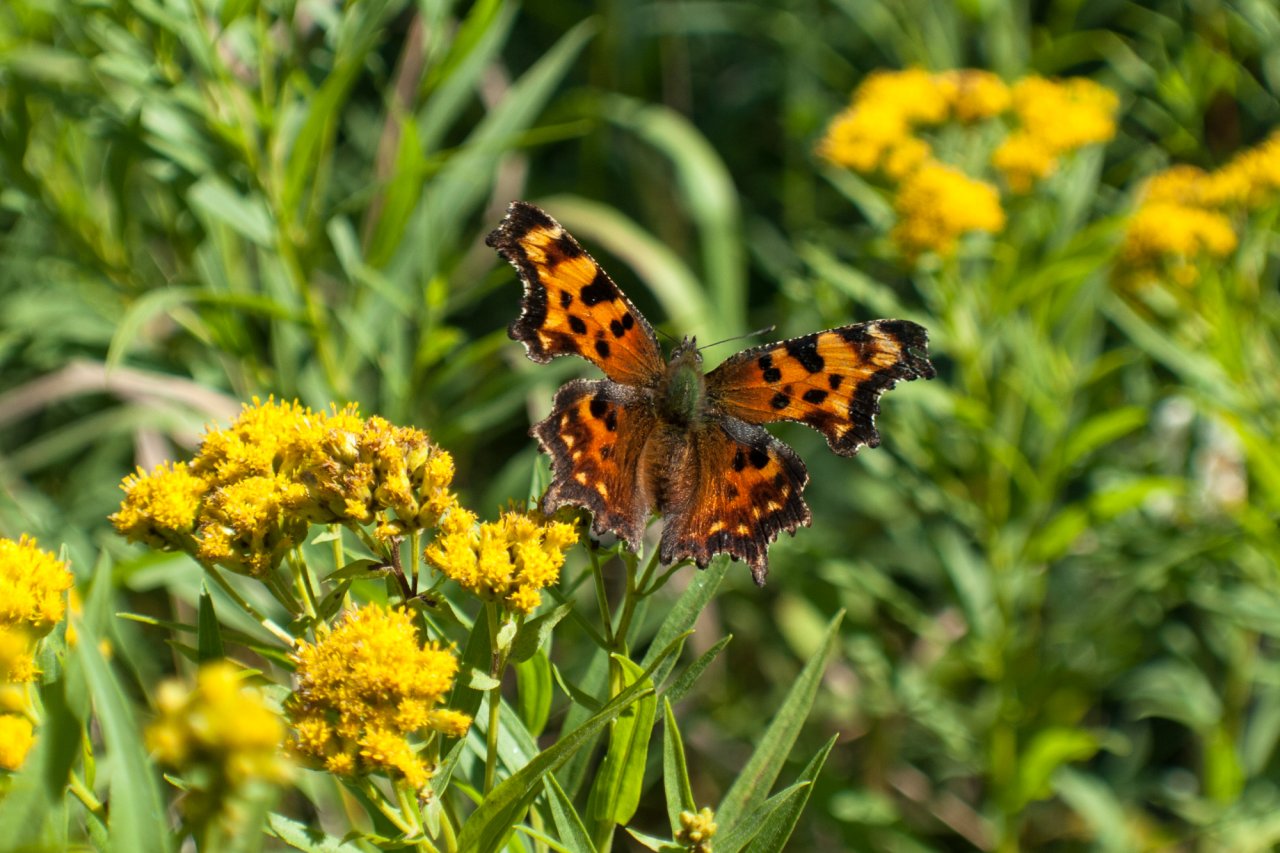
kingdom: Animalia
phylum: Arthropoda
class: Insecta
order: Lepidoptera
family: Nymphalidae
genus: Polygonia
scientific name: Polygonia faunus
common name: Green Comma
